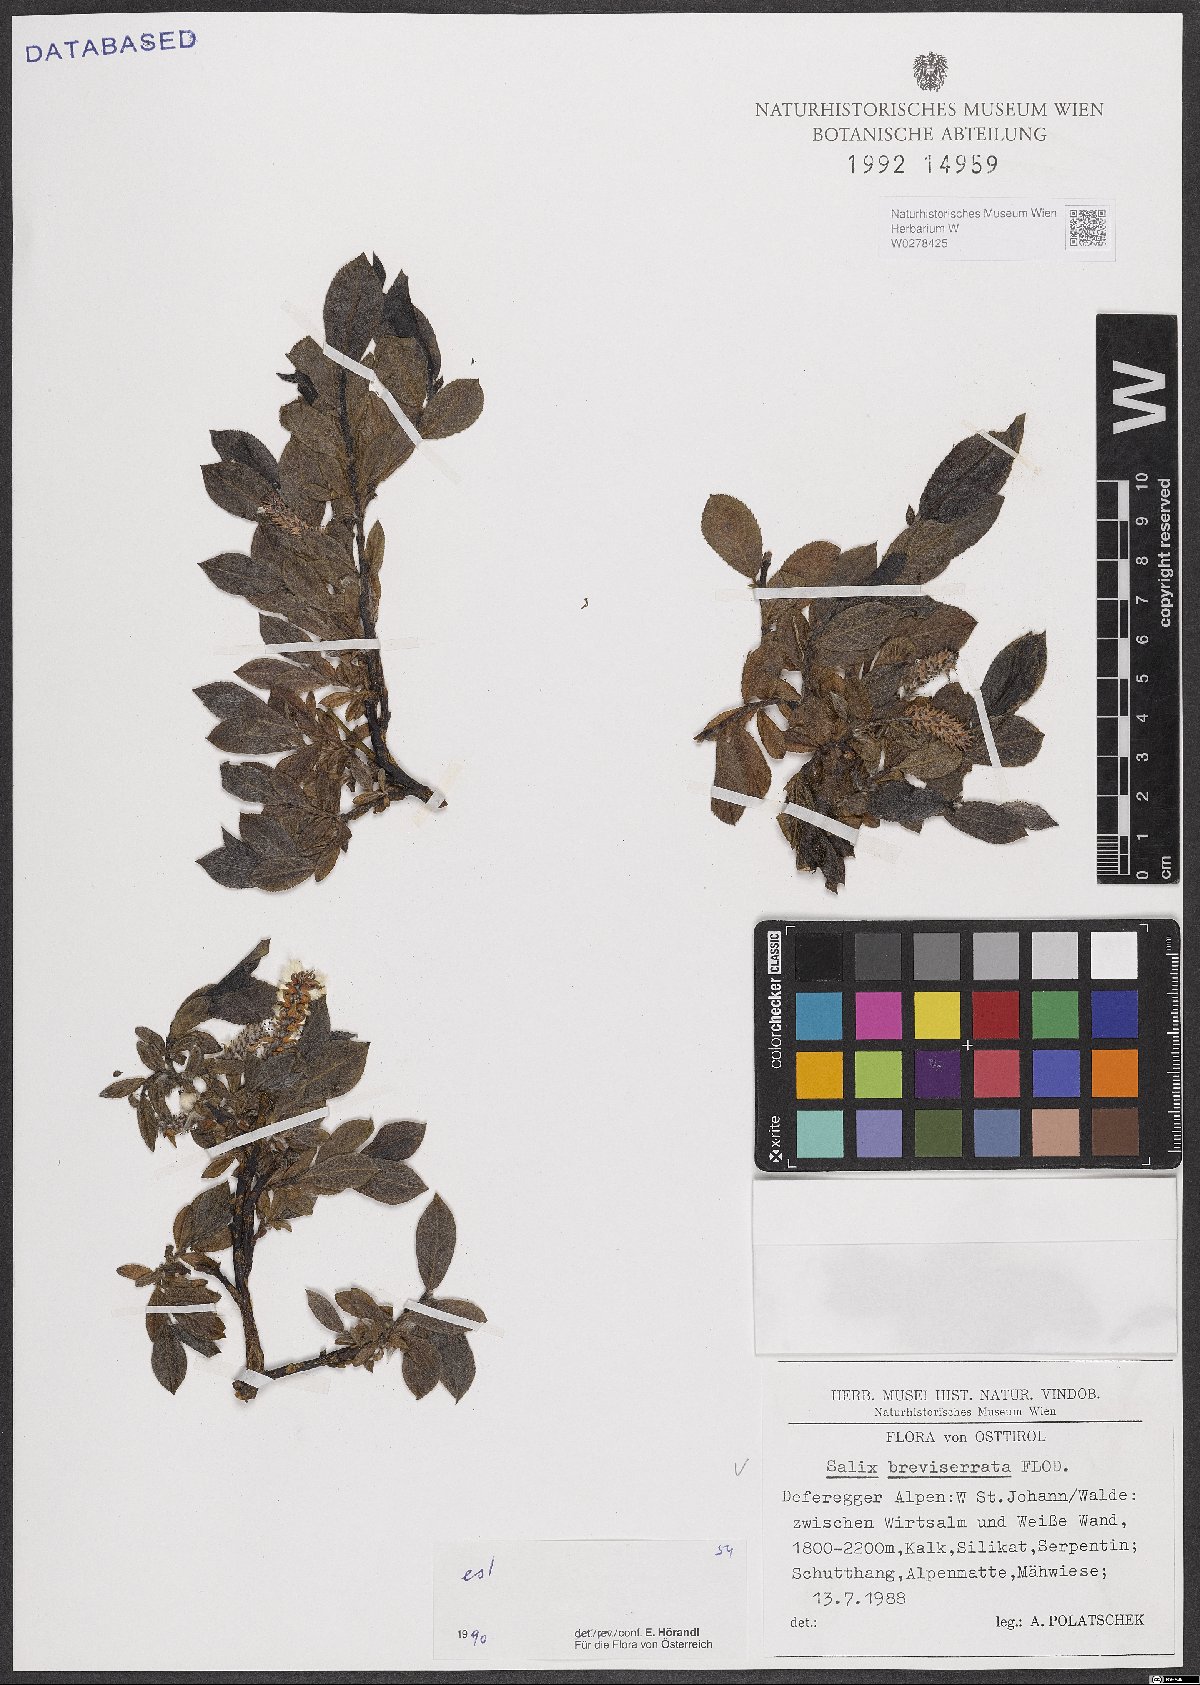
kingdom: Plantae
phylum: Tracheophyta
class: Magnoliopsida
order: Malpighiales
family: Salicaceae
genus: Salix
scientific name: Salix breviserrata
